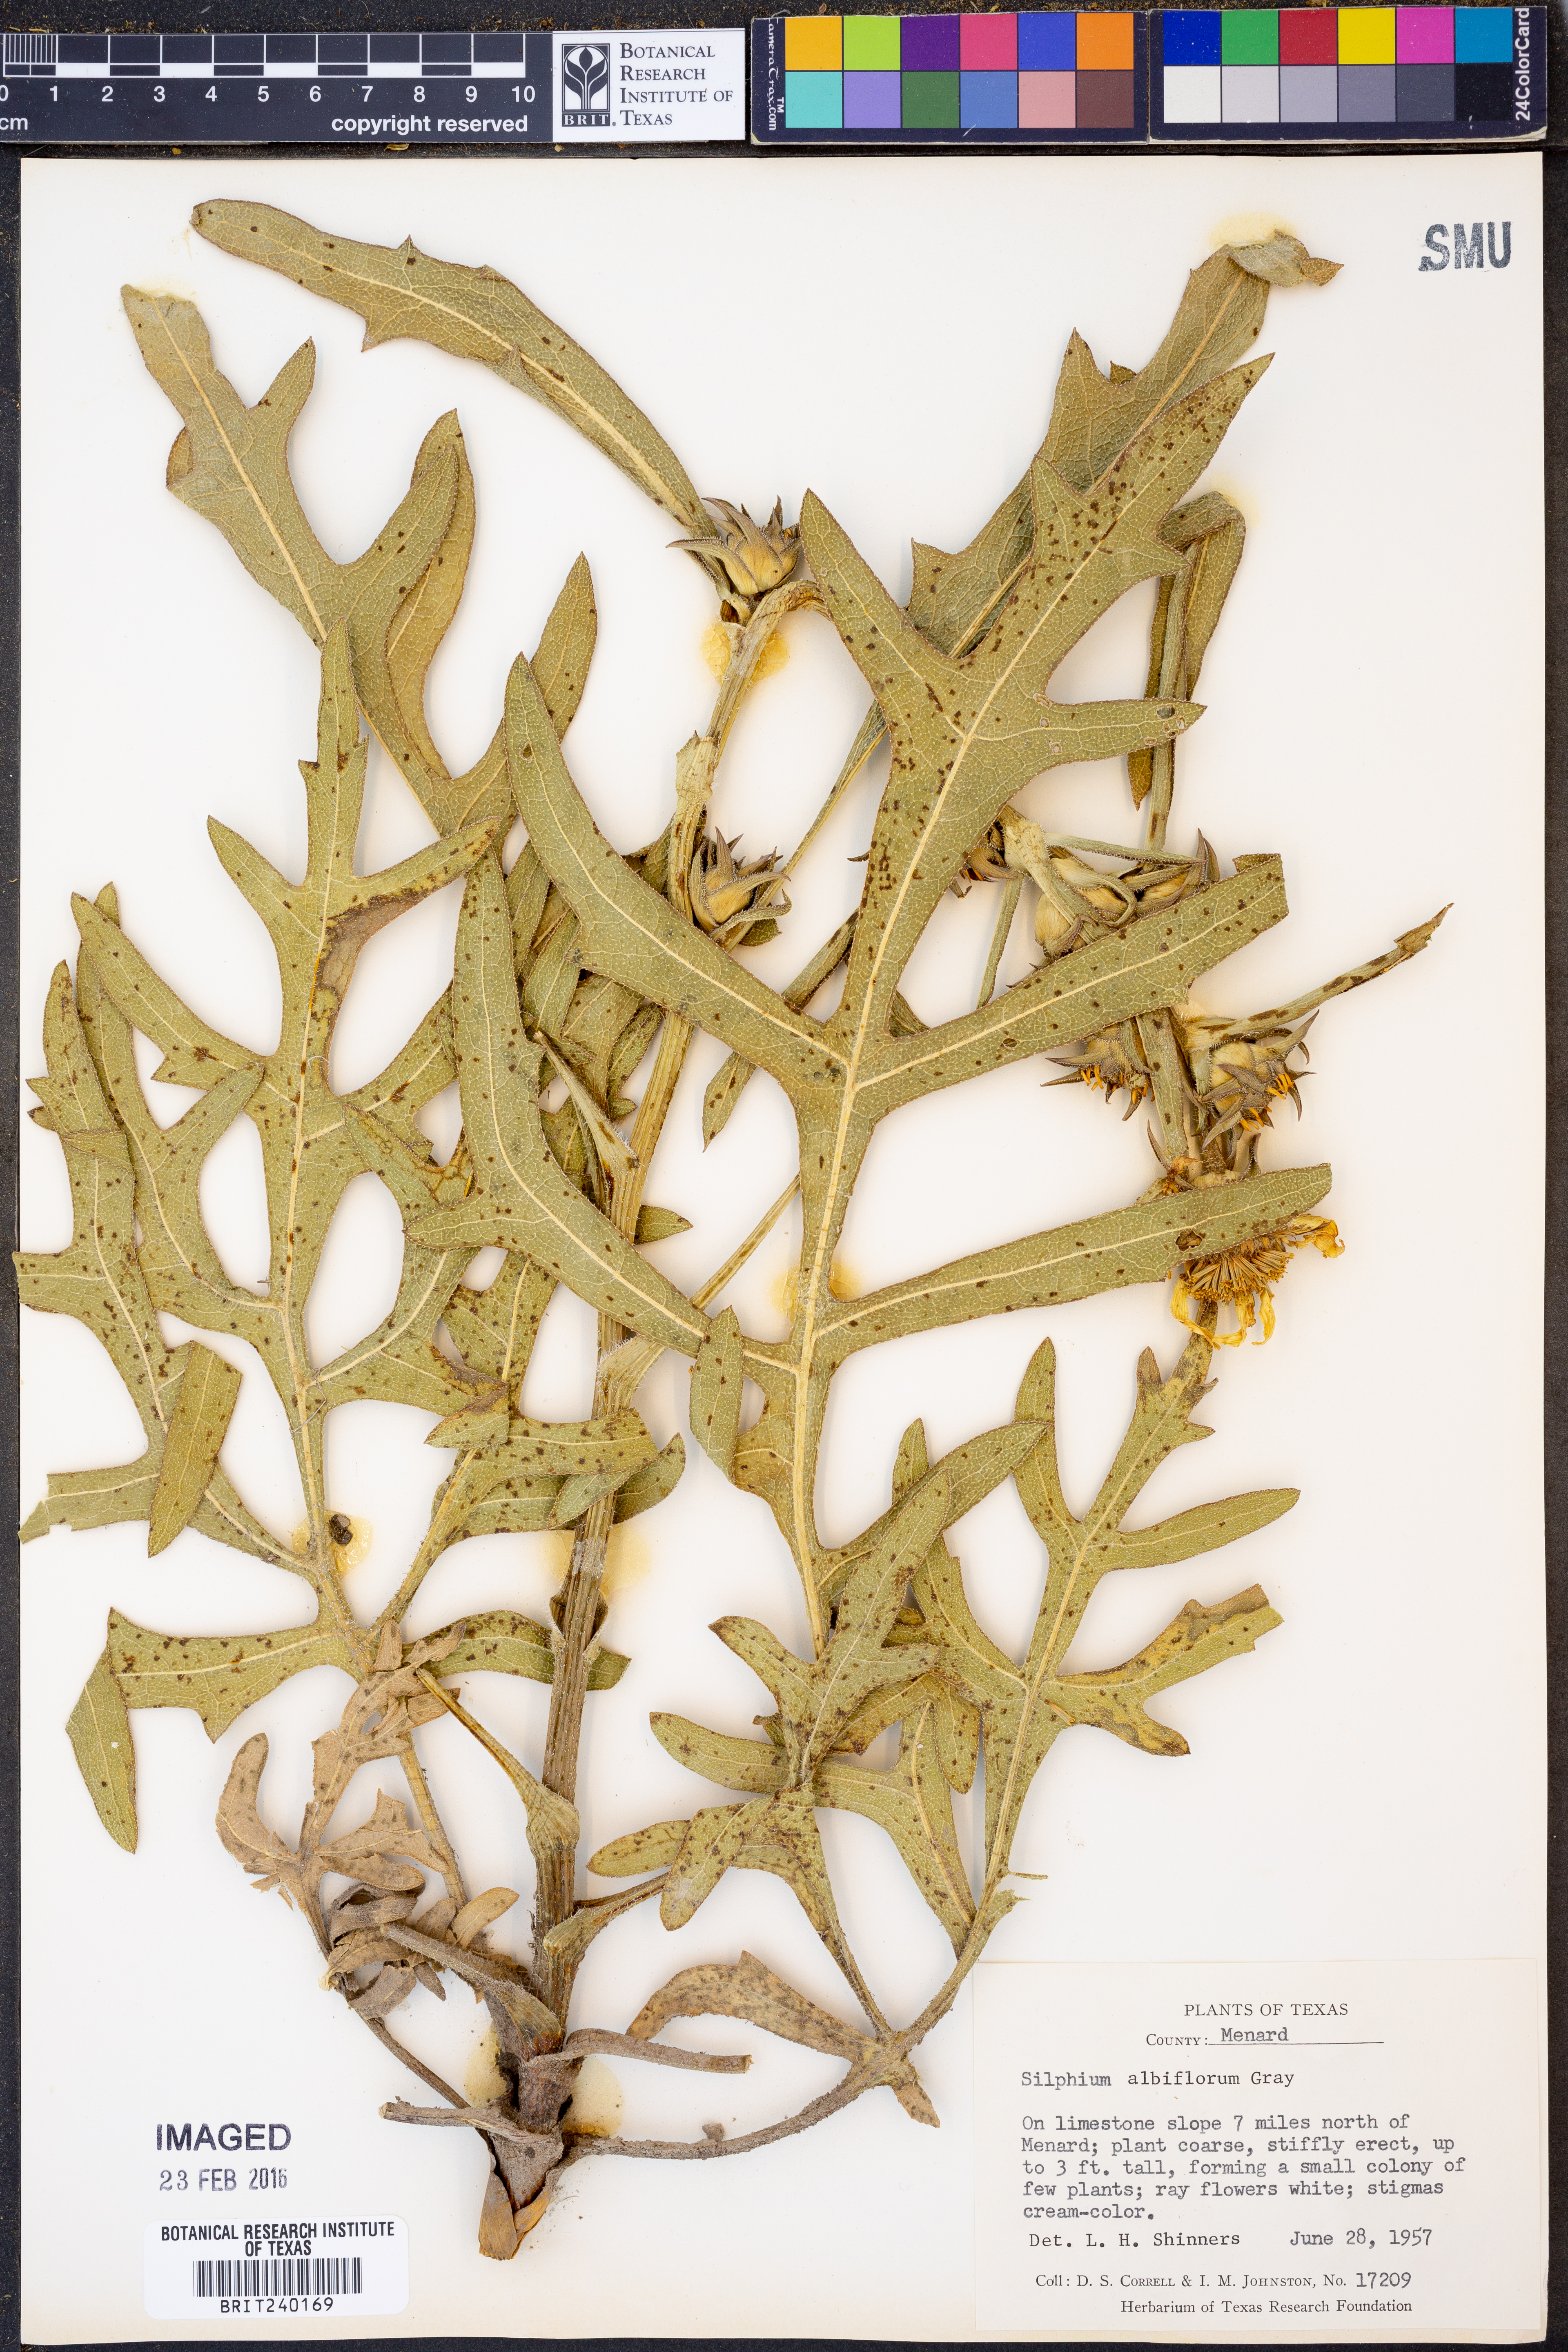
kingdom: Plantae
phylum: Tracheophyta
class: Magnoliopsida
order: Asterales
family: Asteraceae
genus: Silphium
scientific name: Silphium albiflorum
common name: White rosinweed
